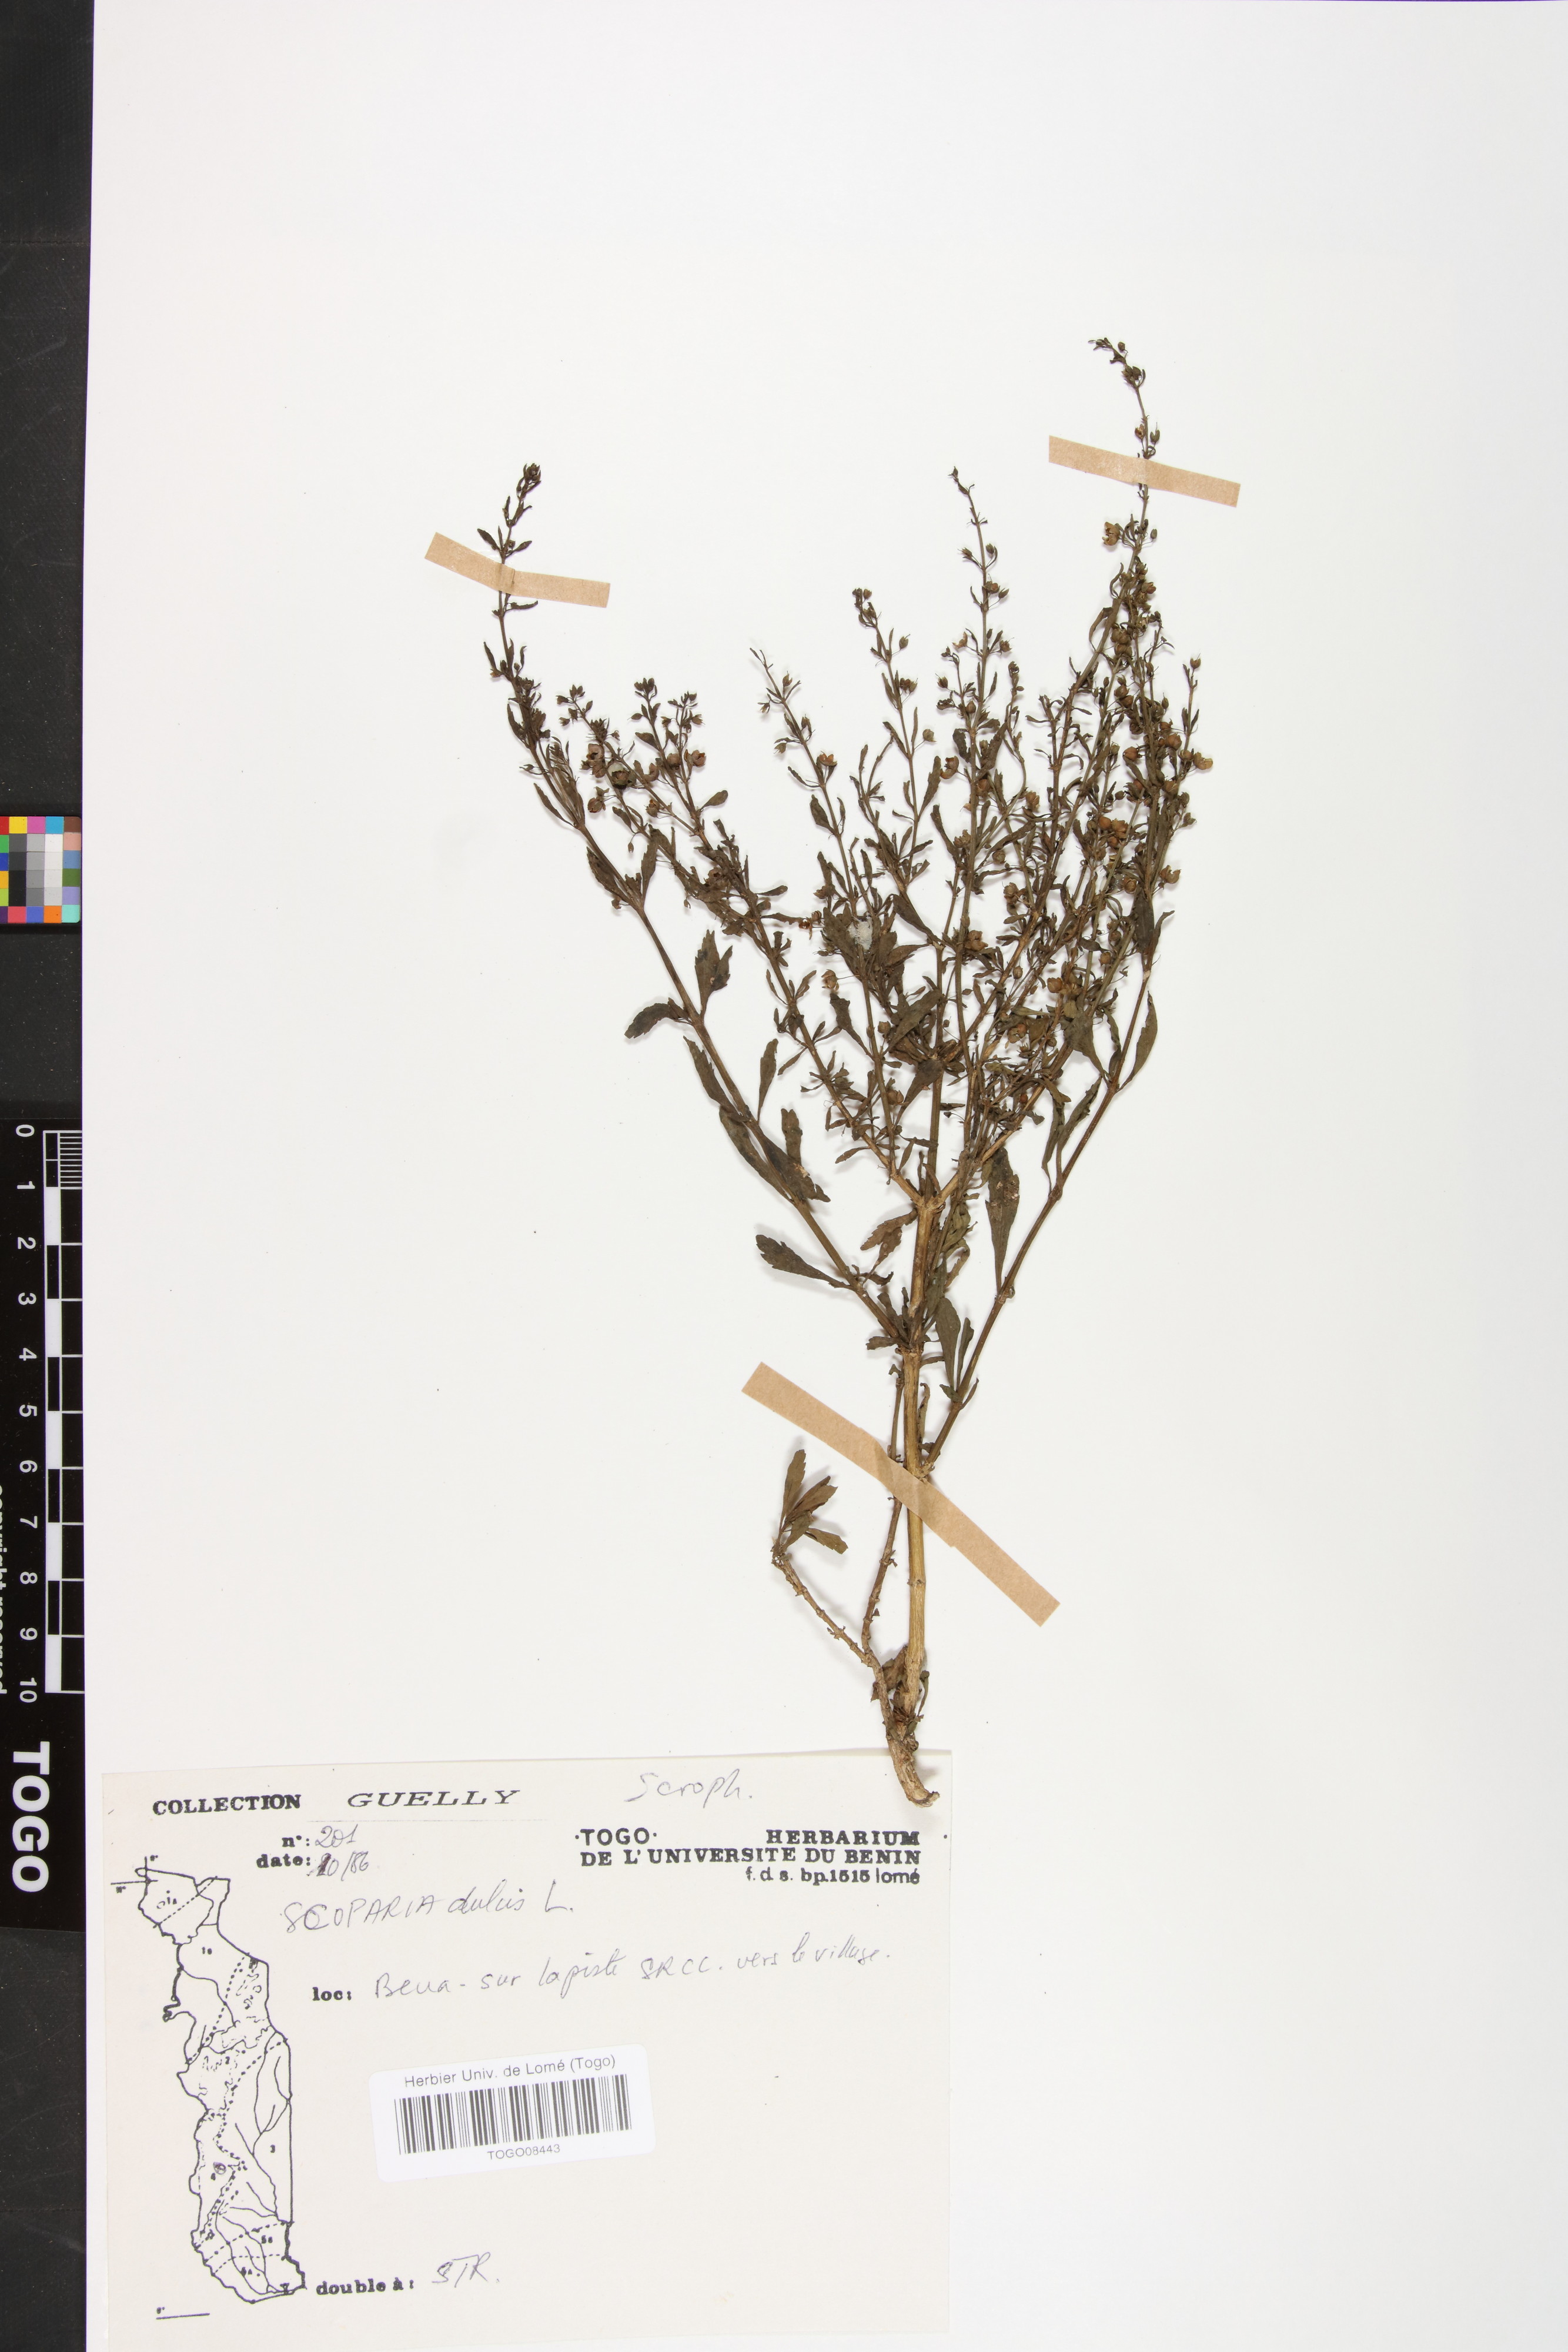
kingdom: Plantae
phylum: Tracheophyta
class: Magnoliopsida
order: Lamiales
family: Plantaginaceae
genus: Scoparia
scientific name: Scoparia dulcis
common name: Scoparia-weed
